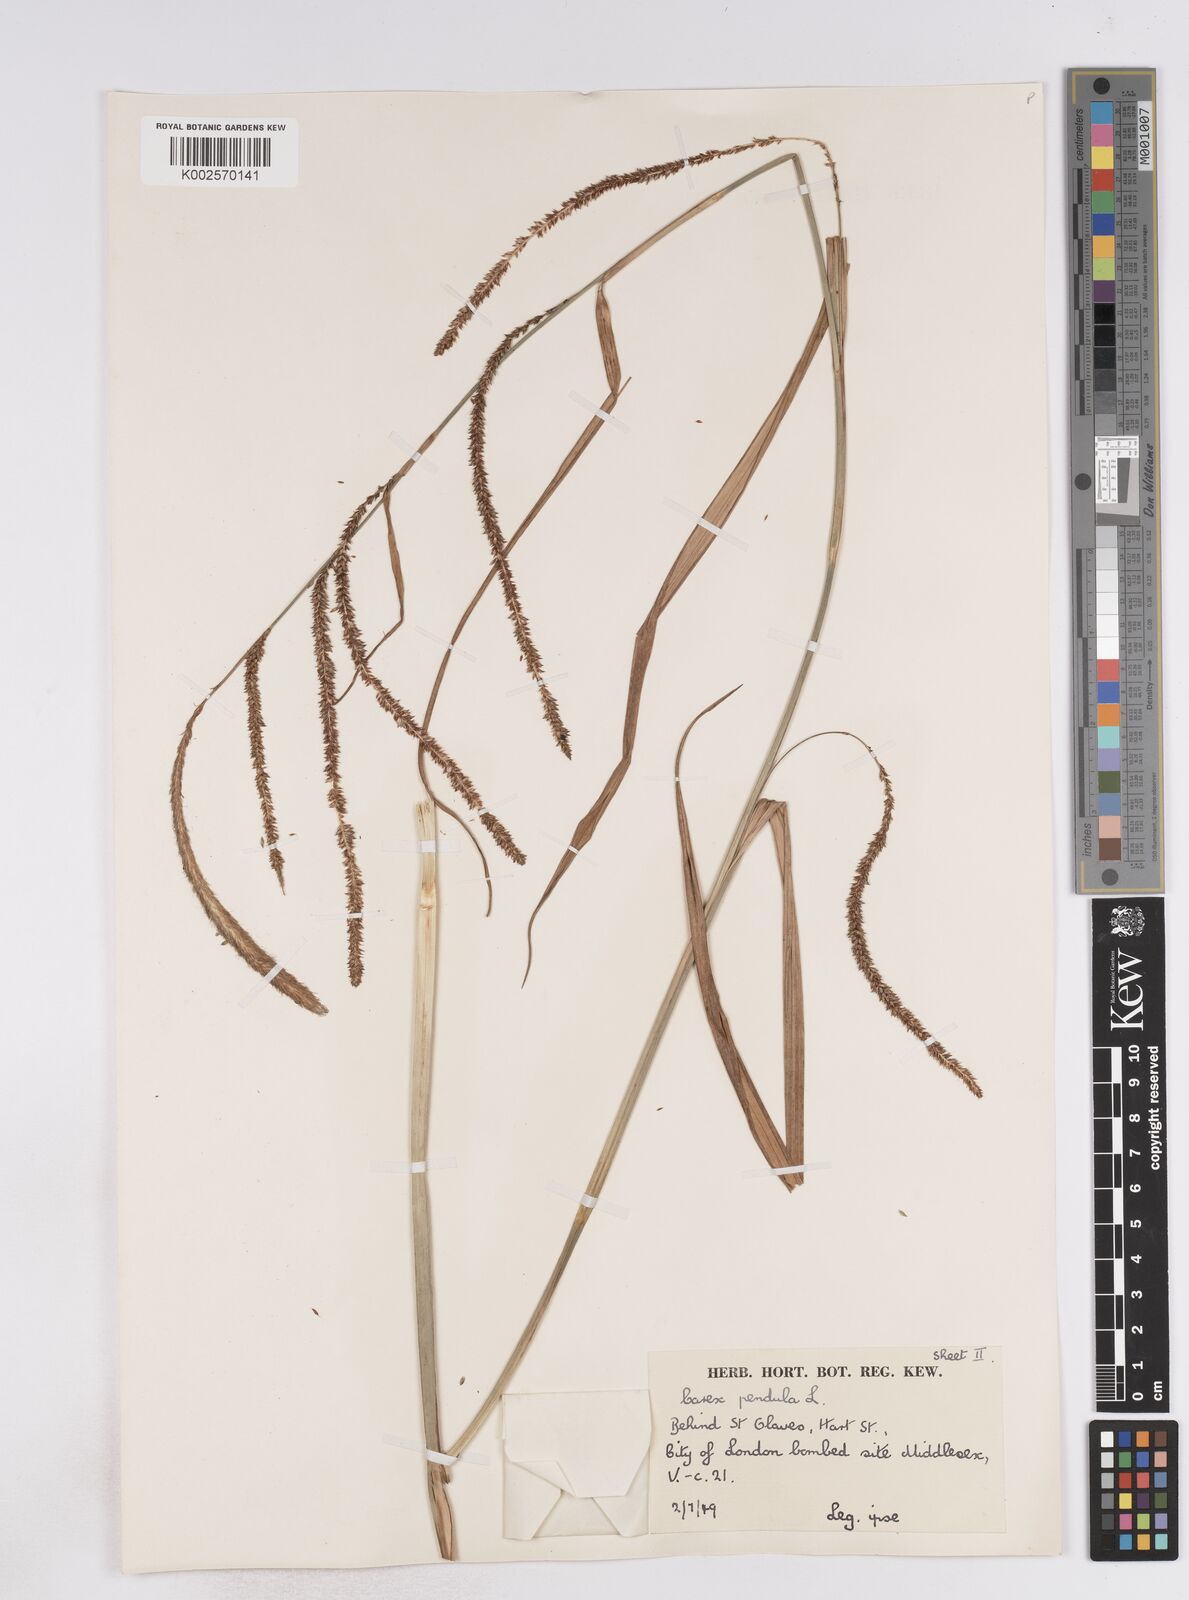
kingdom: Plantae
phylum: Tracheophyta
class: Liliopsida
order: Poales
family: Cyperaceae
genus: Carex
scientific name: Carex pendula
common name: Pendulous sedge
